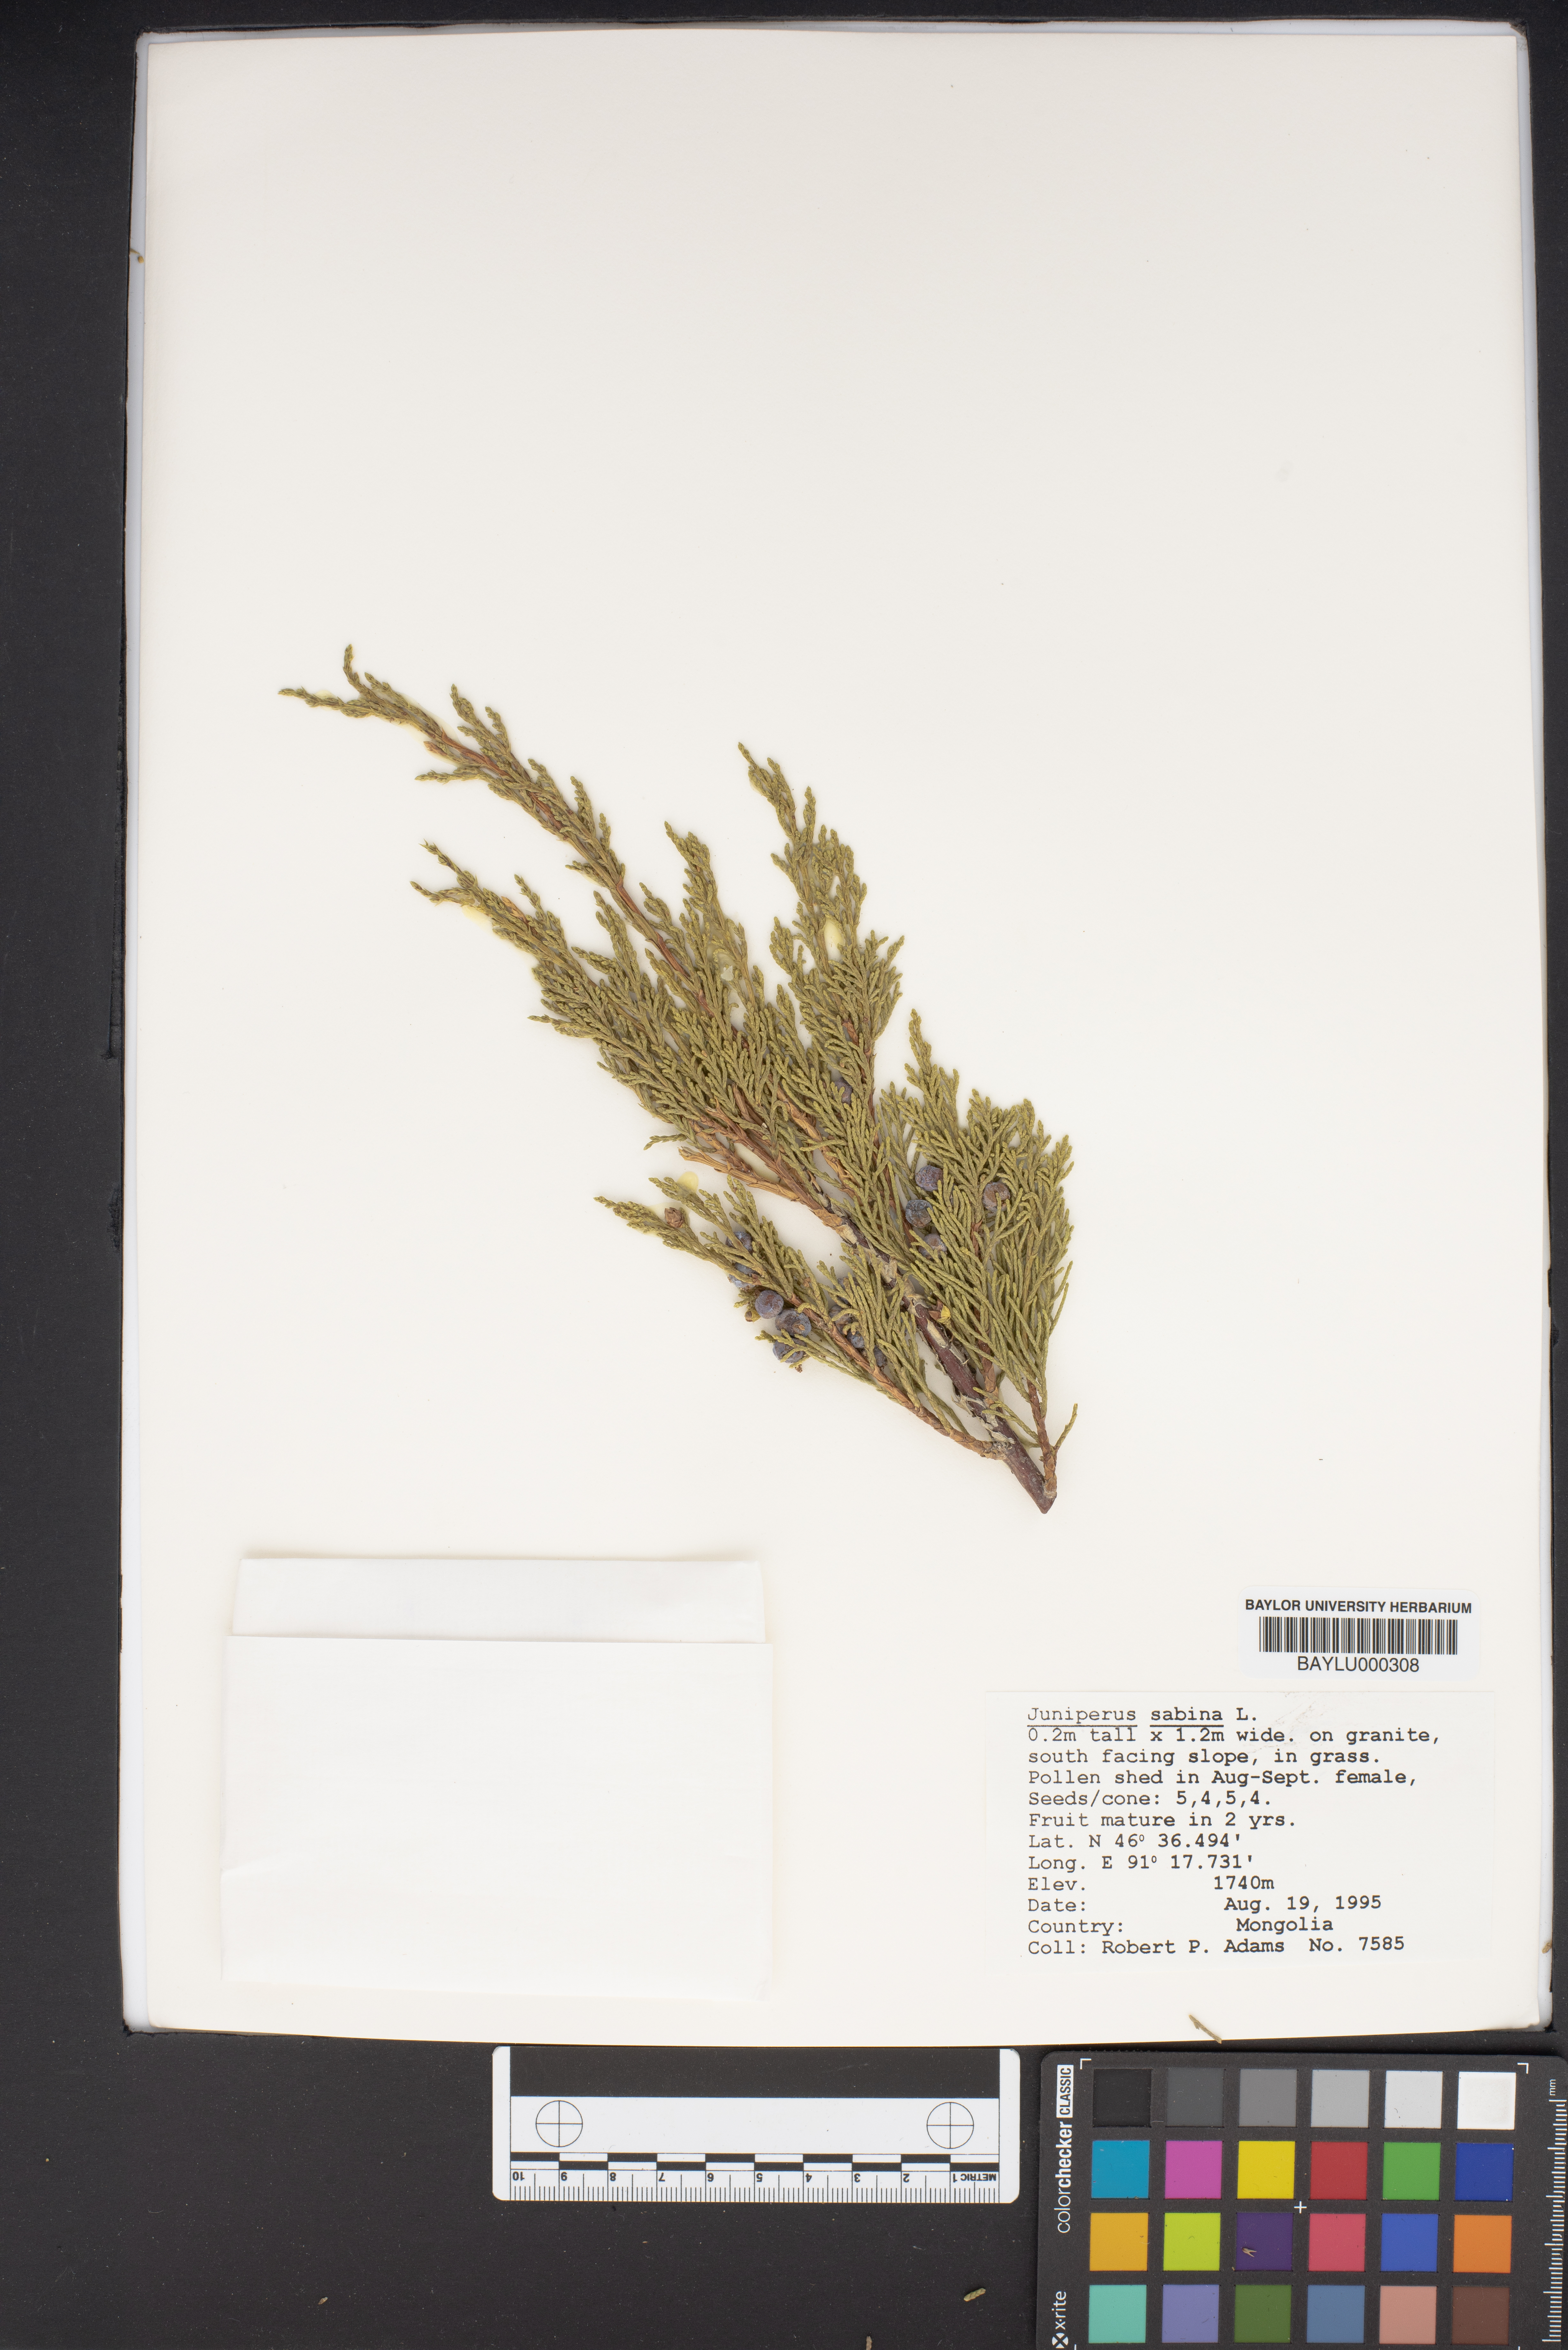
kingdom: Plantae
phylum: Tracheophyta
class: Pinopsida
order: Pinales
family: Cupressaceae
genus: Juniperus
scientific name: Juniperus sabina
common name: Savin
